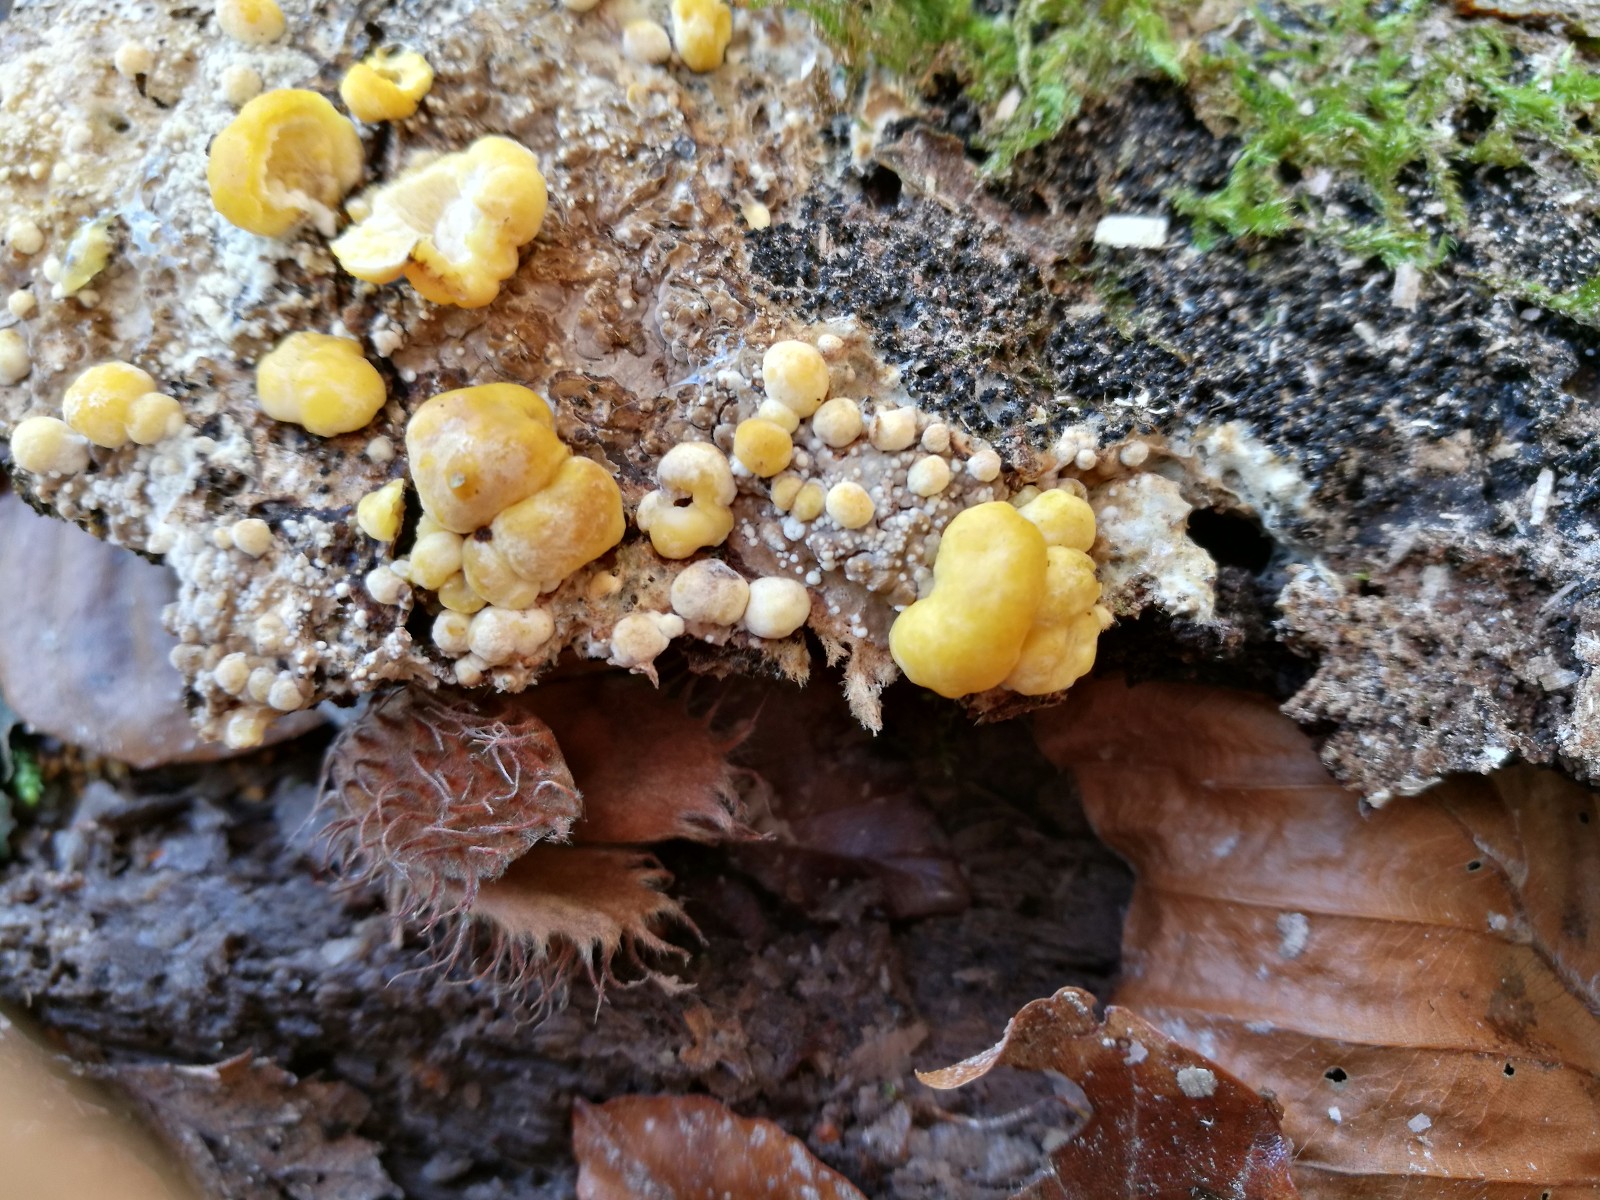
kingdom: Fungi
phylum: Ascomycota
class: Sordariomycetes
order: Xylariales
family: Hypoxylaceae
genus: Nodulisporium
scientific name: Nodulisporium cecidiogenes
